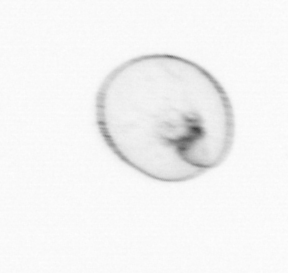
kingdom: Chromista
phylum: Myzozoa
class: Dinophyceae
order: Noctilucales
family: Noctilucaceae
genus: Noctiluca
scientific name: Noctiluca scintillans
